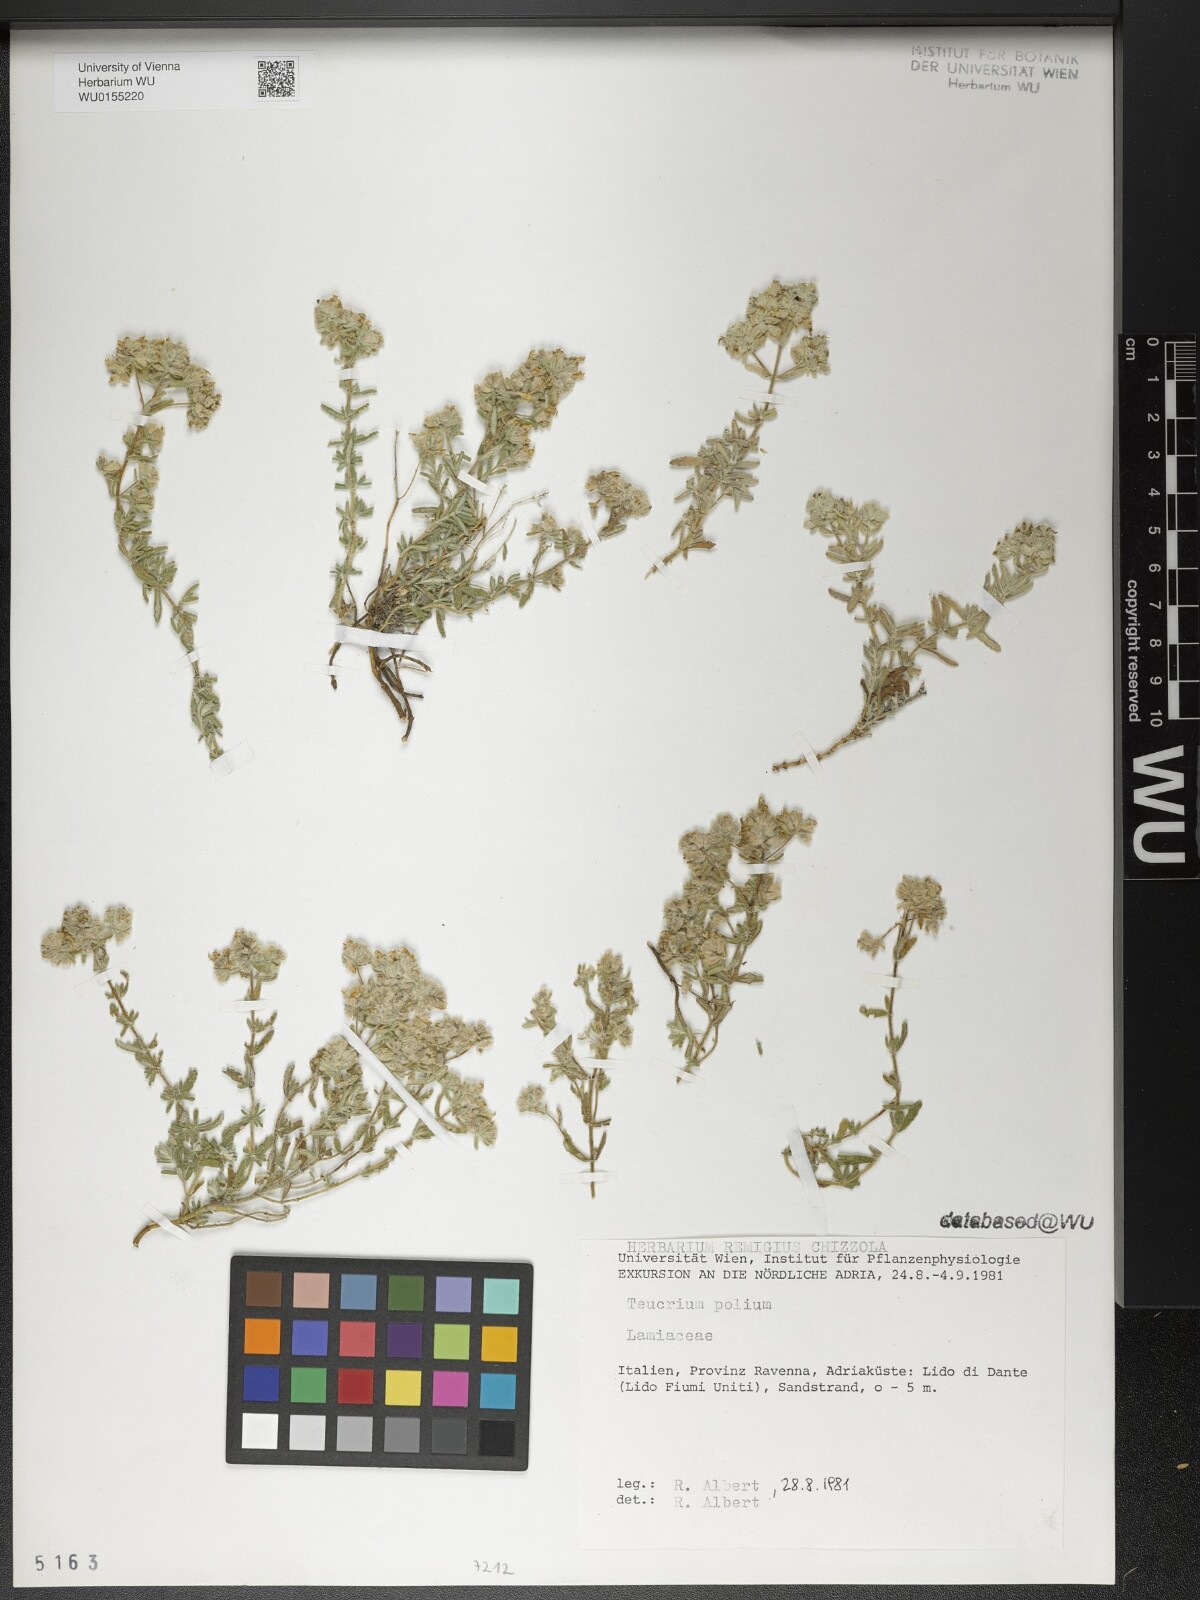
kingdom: Plantae
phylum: Tracheophyta
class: Magnoliopsida
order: Lamiales
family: Lamiaceae
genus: Teucrium
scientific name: Teucrium polium
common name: Poley
